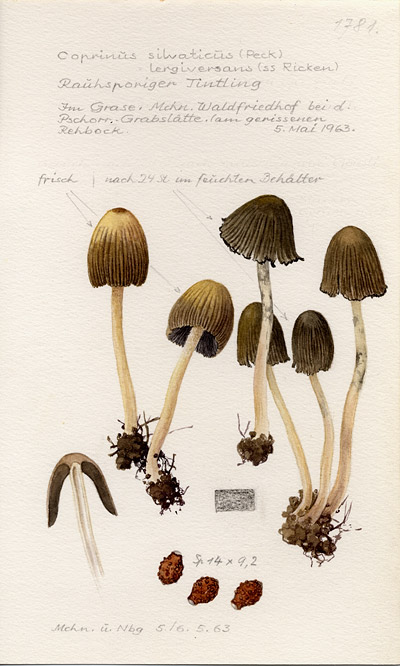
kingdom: Fungi
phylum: Basidiomycota
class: Agaricomycetes
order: Agaricales
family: Psathyrellaceae
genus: Coprinellus
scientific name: Coprinellus silvaticus
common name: Woodland inkcap
